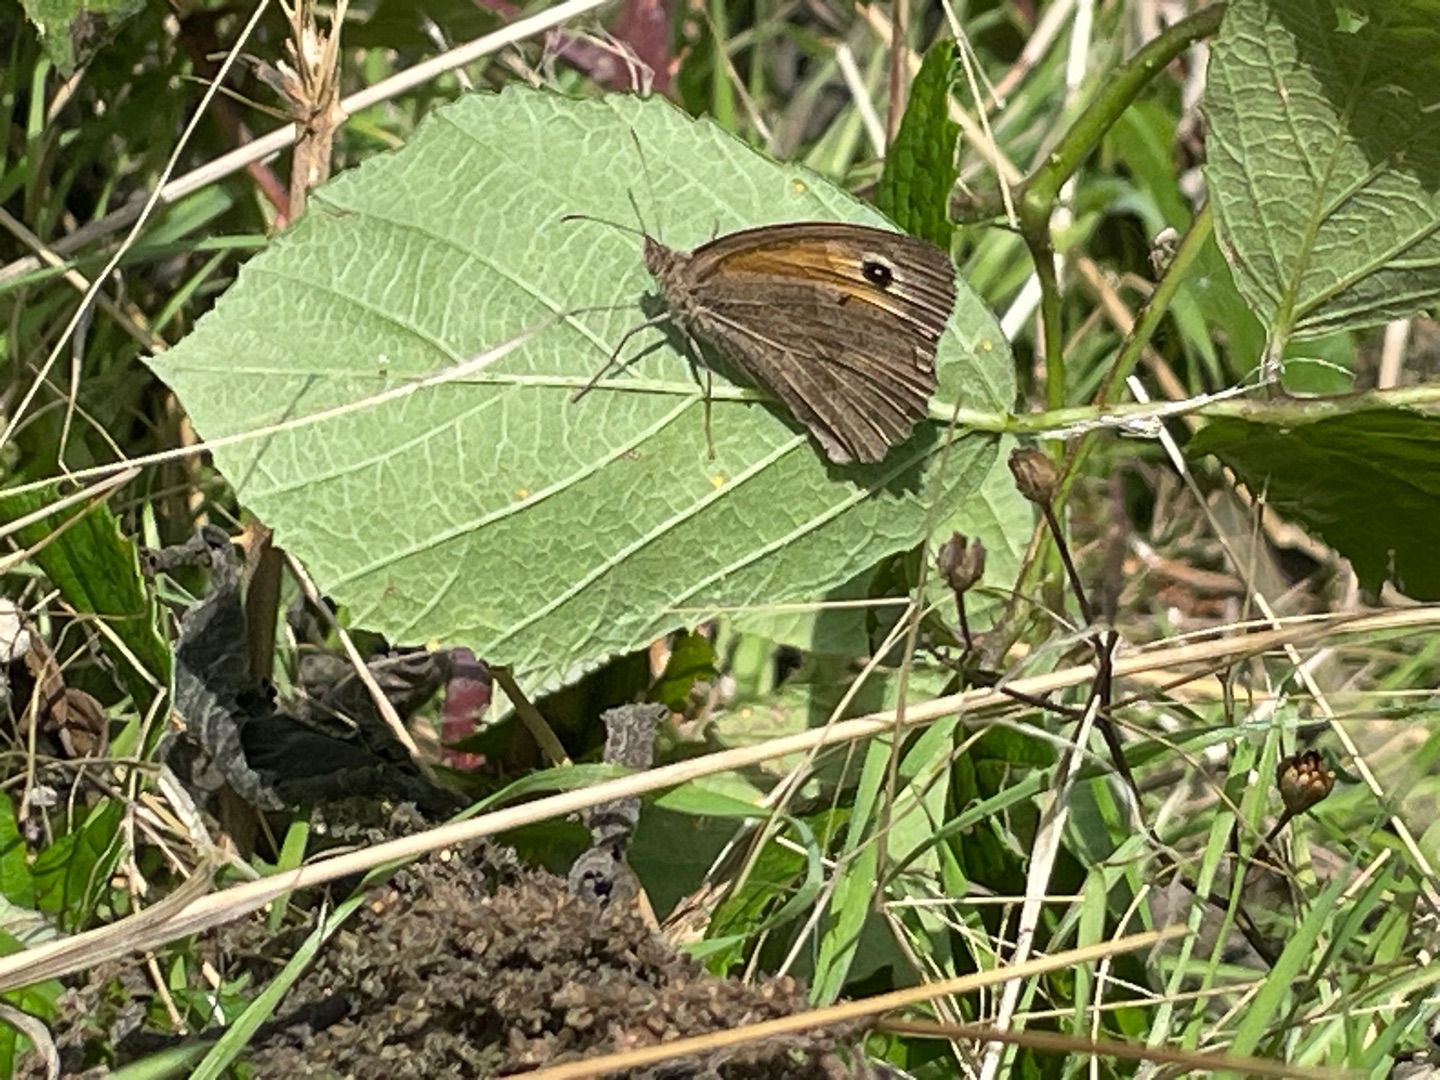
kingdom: Animalia
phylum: Arthropoda
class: Insecta
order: Lepidoptera
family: Nymphalidae
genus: Maniola
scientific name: Maniola jurtina
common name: Græsrandøje
